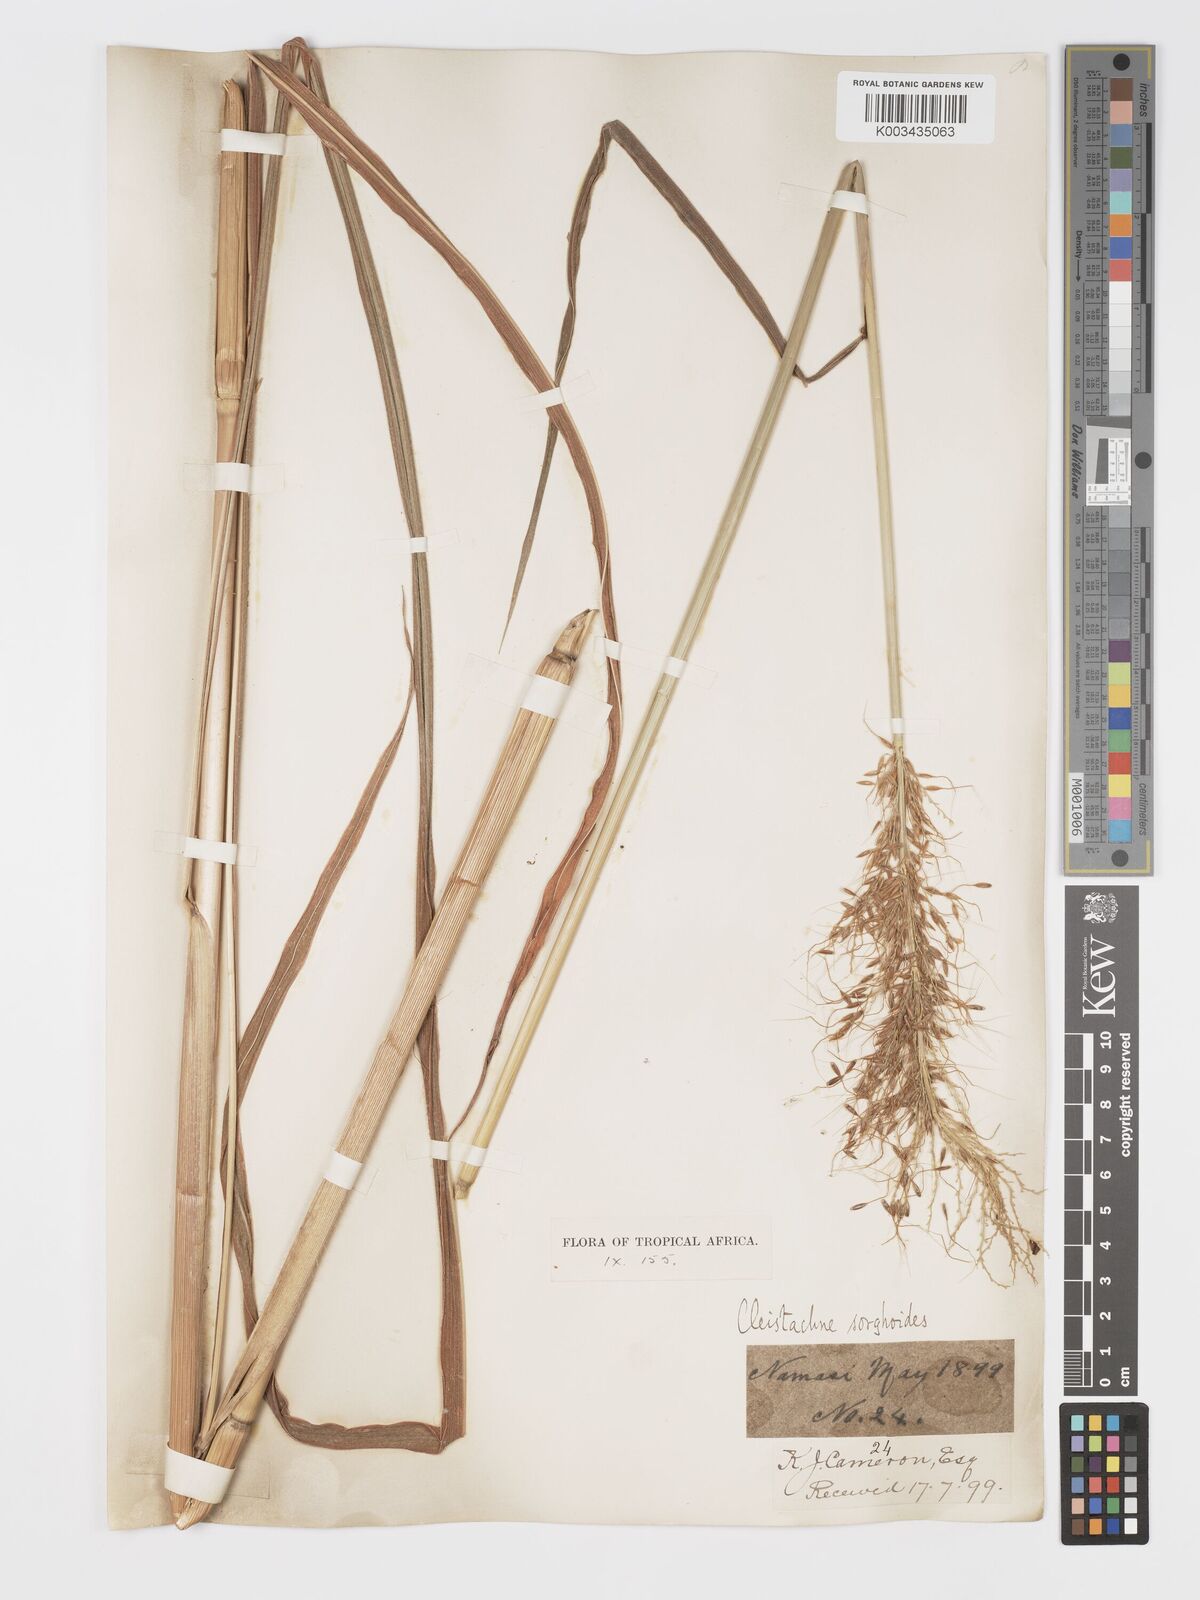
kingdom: Plantae
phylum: Tracheophyta
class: Liliopsida
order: Poales
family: Poaceae
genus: Cleistachne
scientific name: Cleistachne sorghoides
